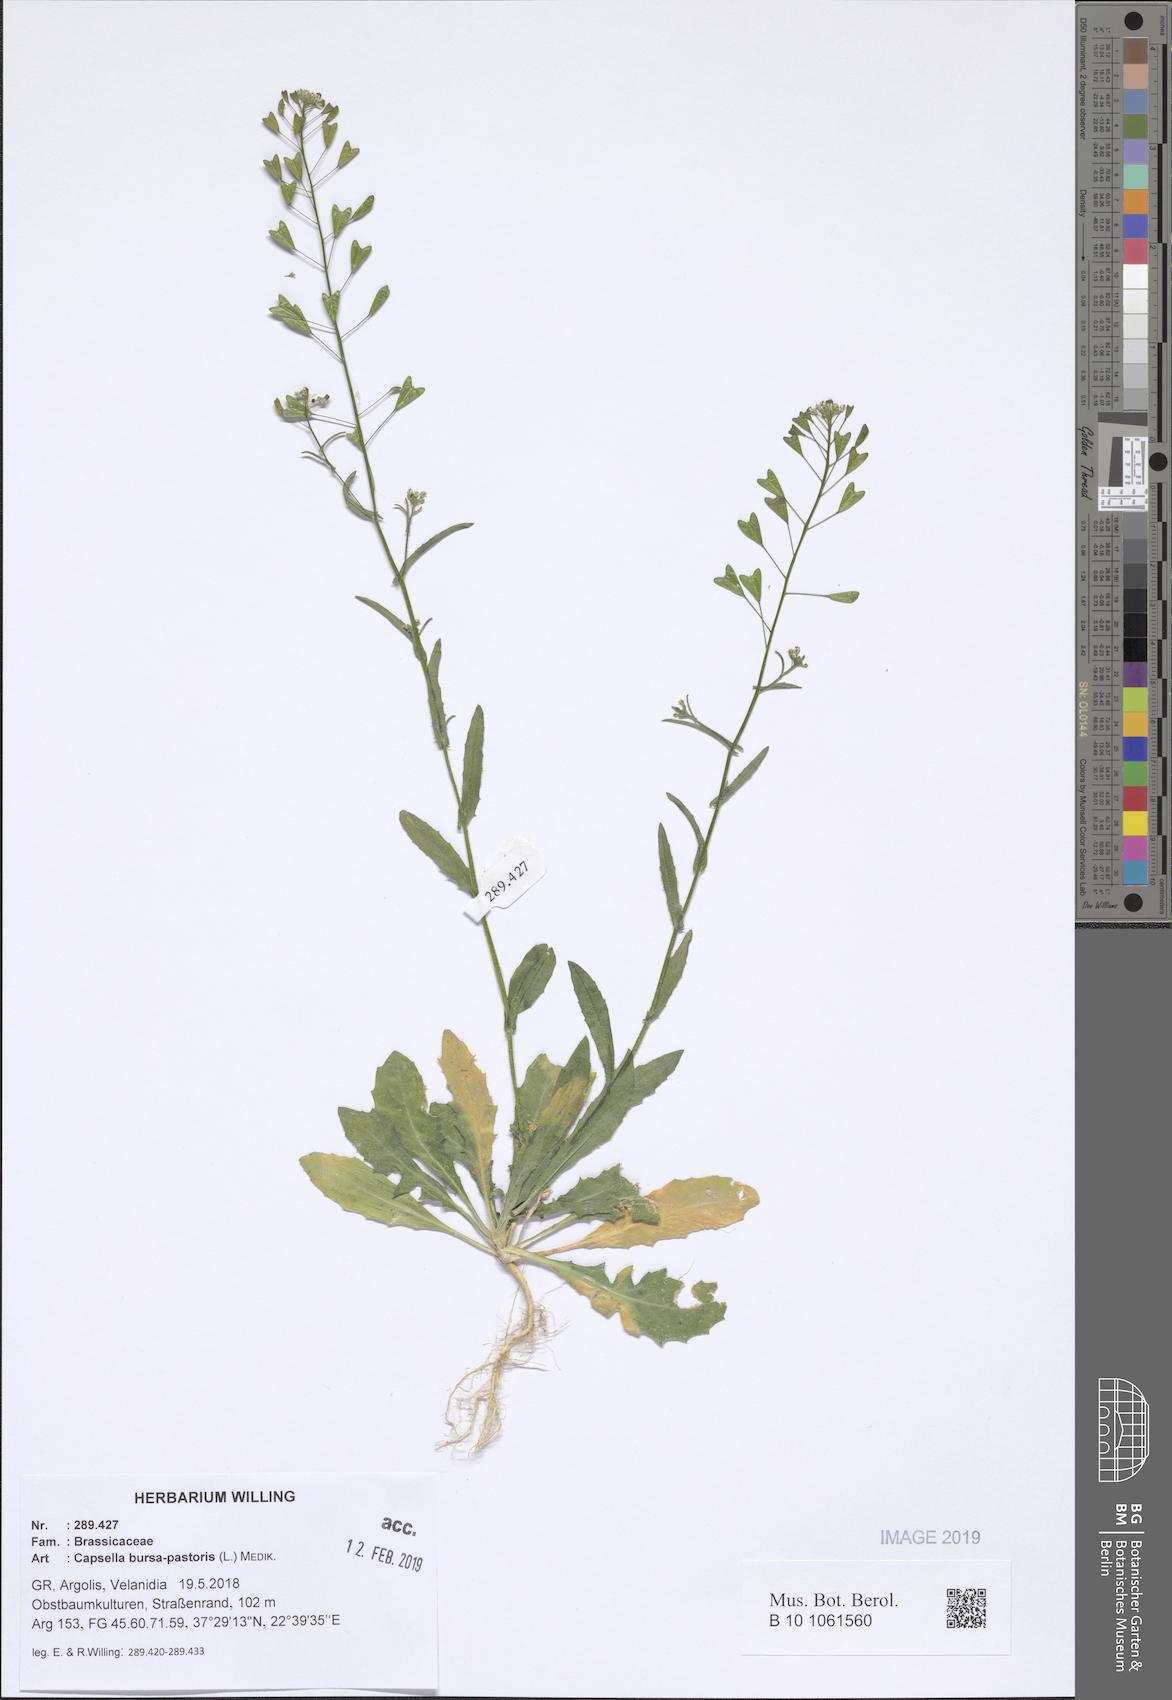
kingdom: Plantae
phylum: Tracheophyta
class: Magnoliopsida
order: Brassicales
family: Brassicaceae
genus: Capsella
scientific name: Capsella bursa-pastoris
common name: Shepherd's purse
